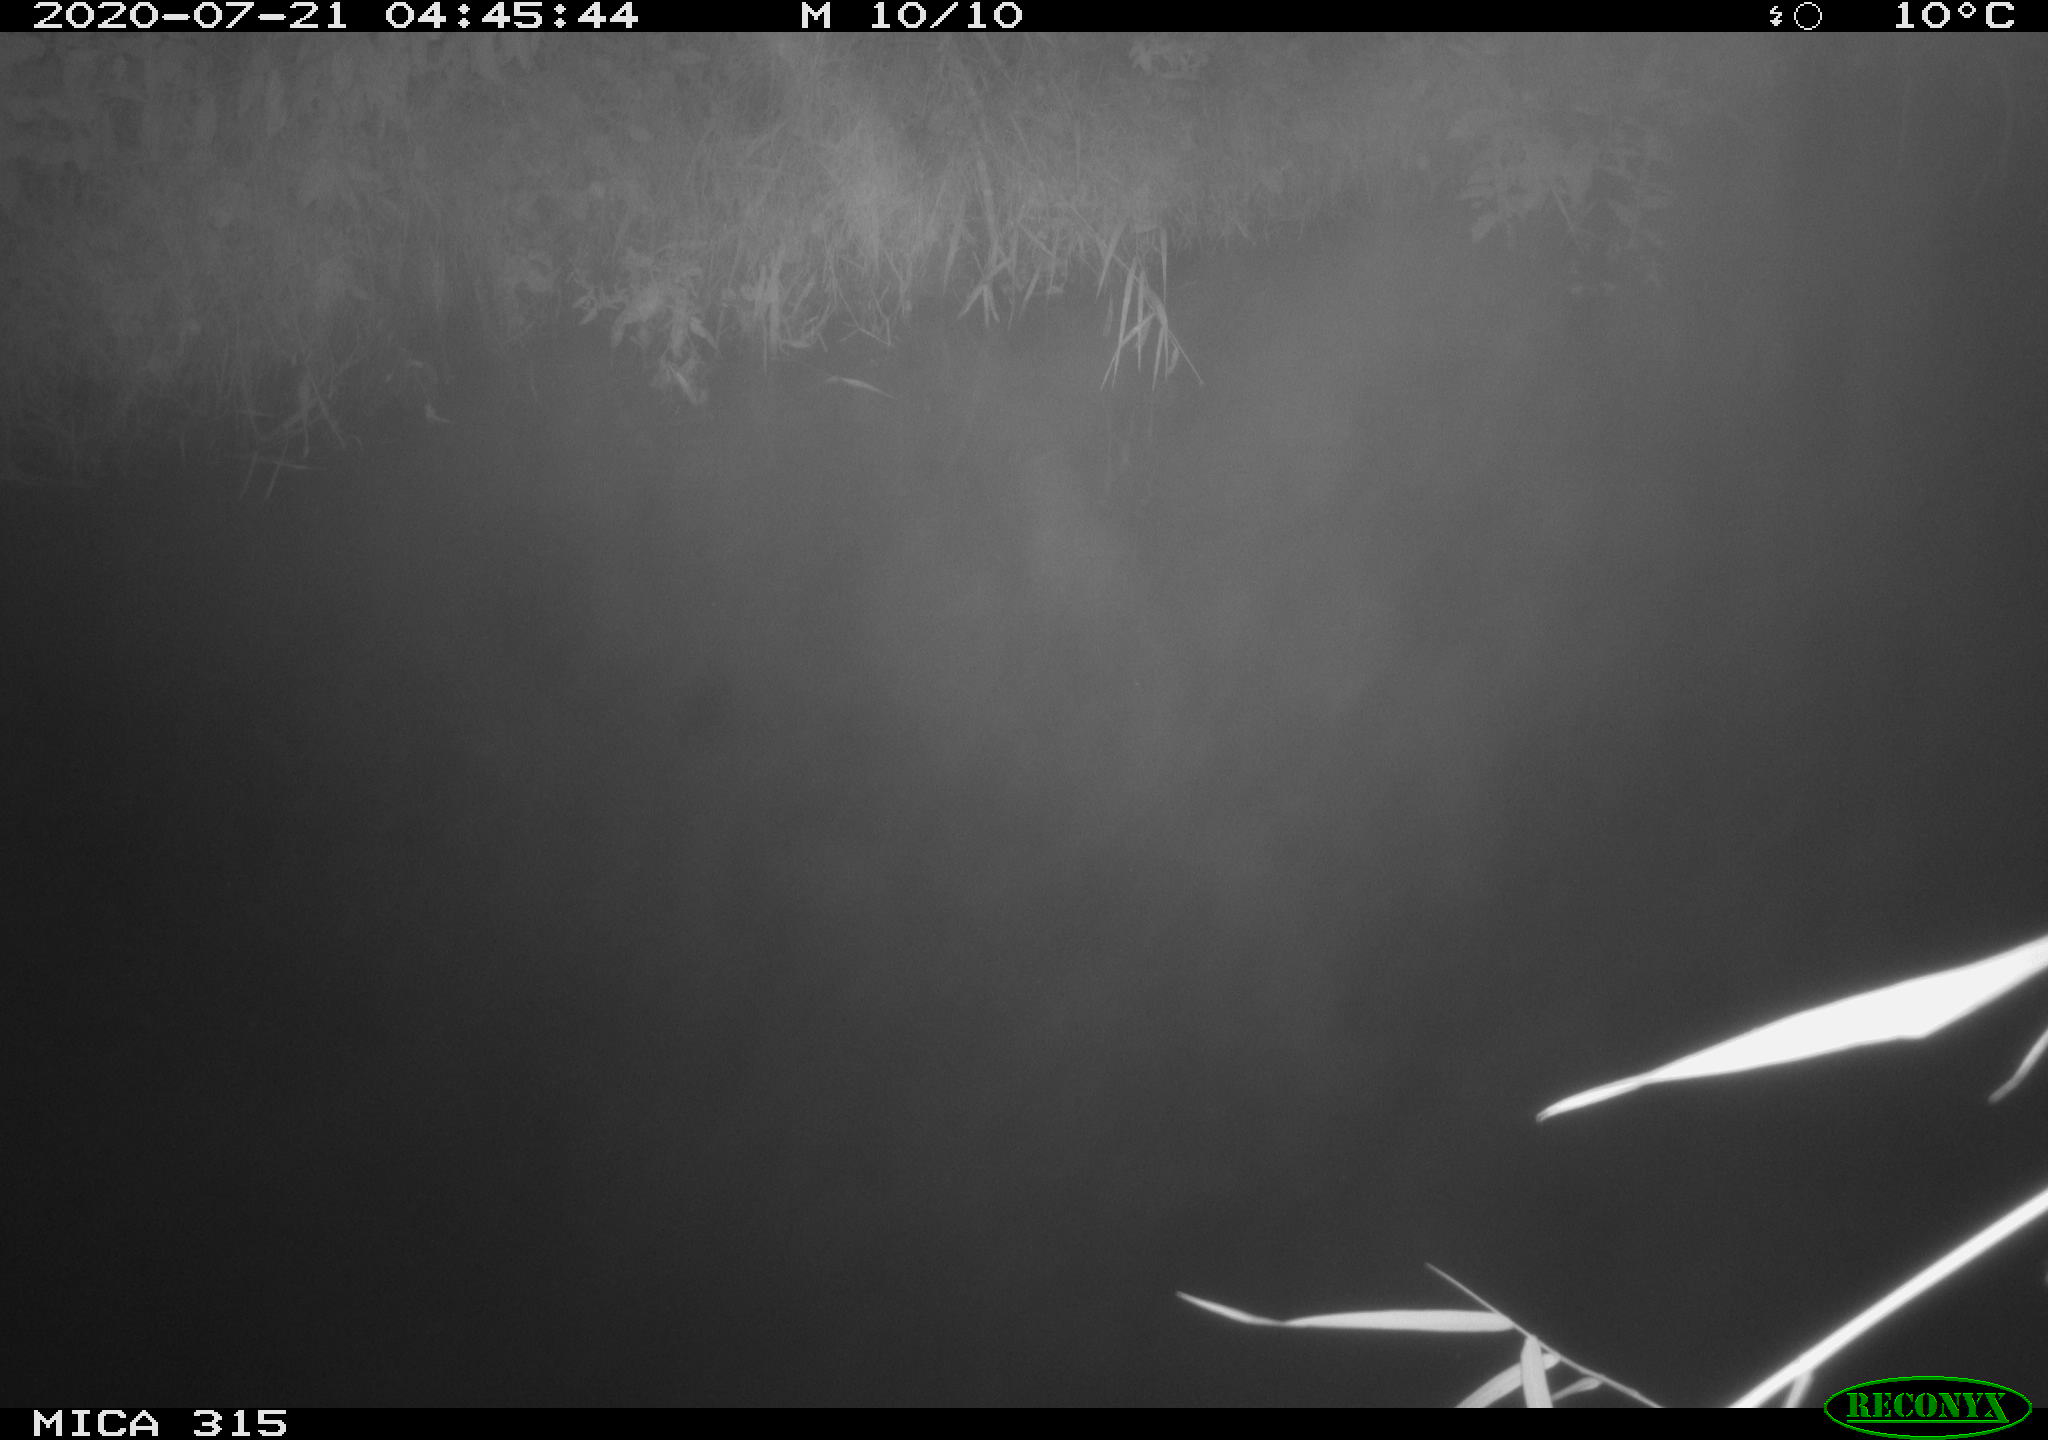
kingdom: Animalia
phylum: Chordata
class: Aves
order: Anseriformes
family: Anatidae
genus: Anas
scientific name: Anas platyrhynchos
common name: Mallard
